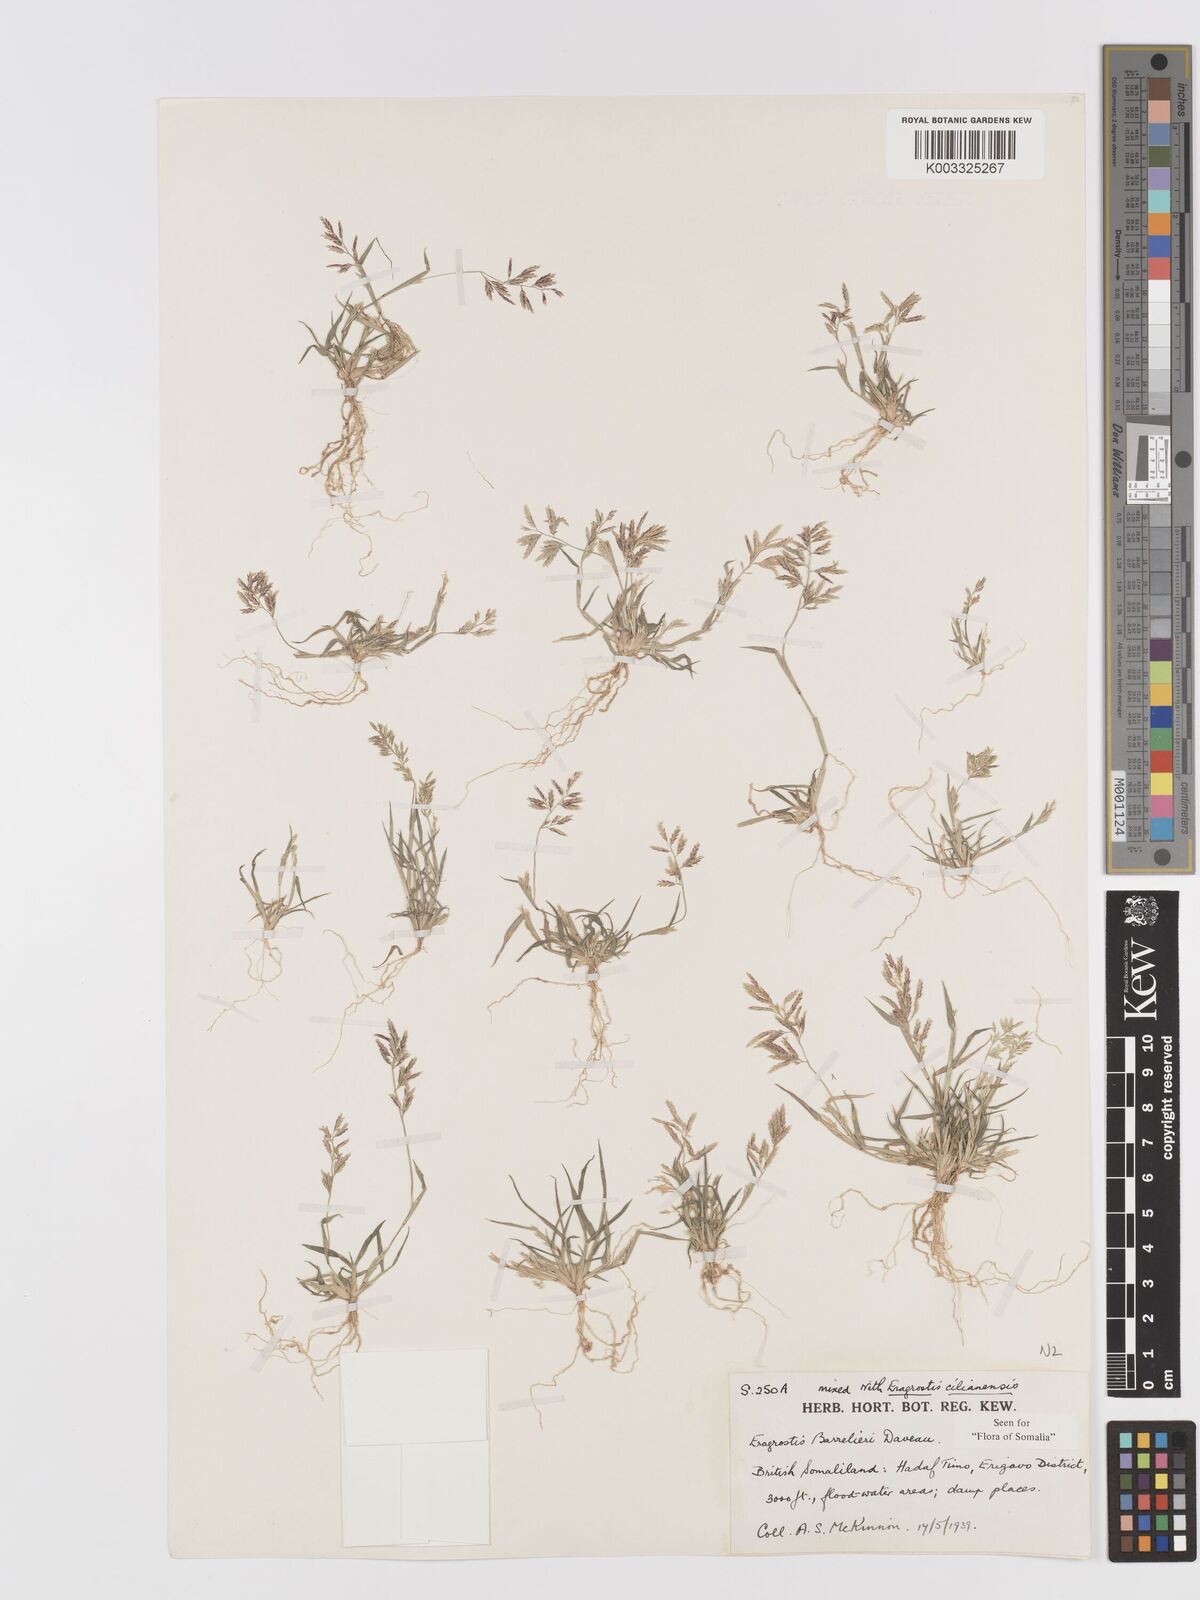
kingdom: Plantae
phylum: Tracheophyta
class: Liliopsida
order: Poales
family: Poaceae
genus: Eragrostis
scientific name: Eragrostis barrelieri
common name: Mediterranean lovegrass
